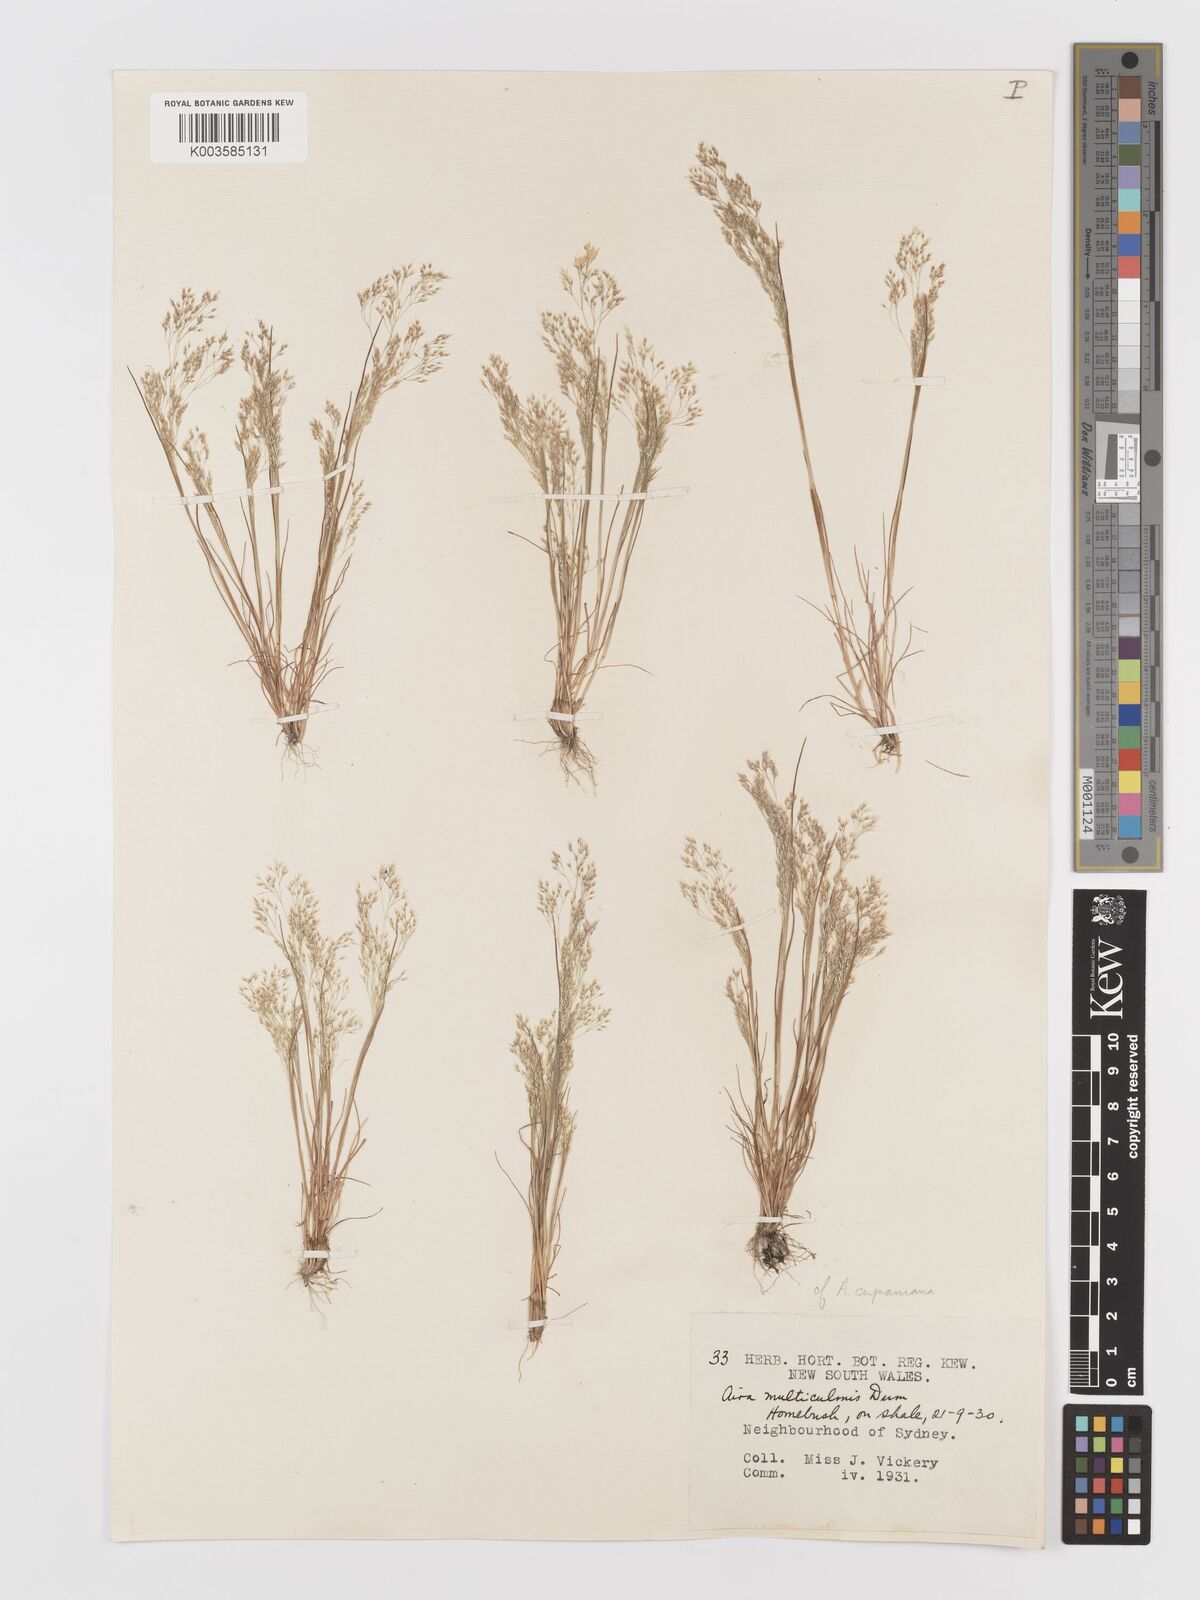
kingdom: Plantae
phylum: Tracheophyta
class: Liliopsida
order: Poales
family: Poaceae
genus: Aira
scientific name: Aira cupaniana
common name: Silver hairgrass
